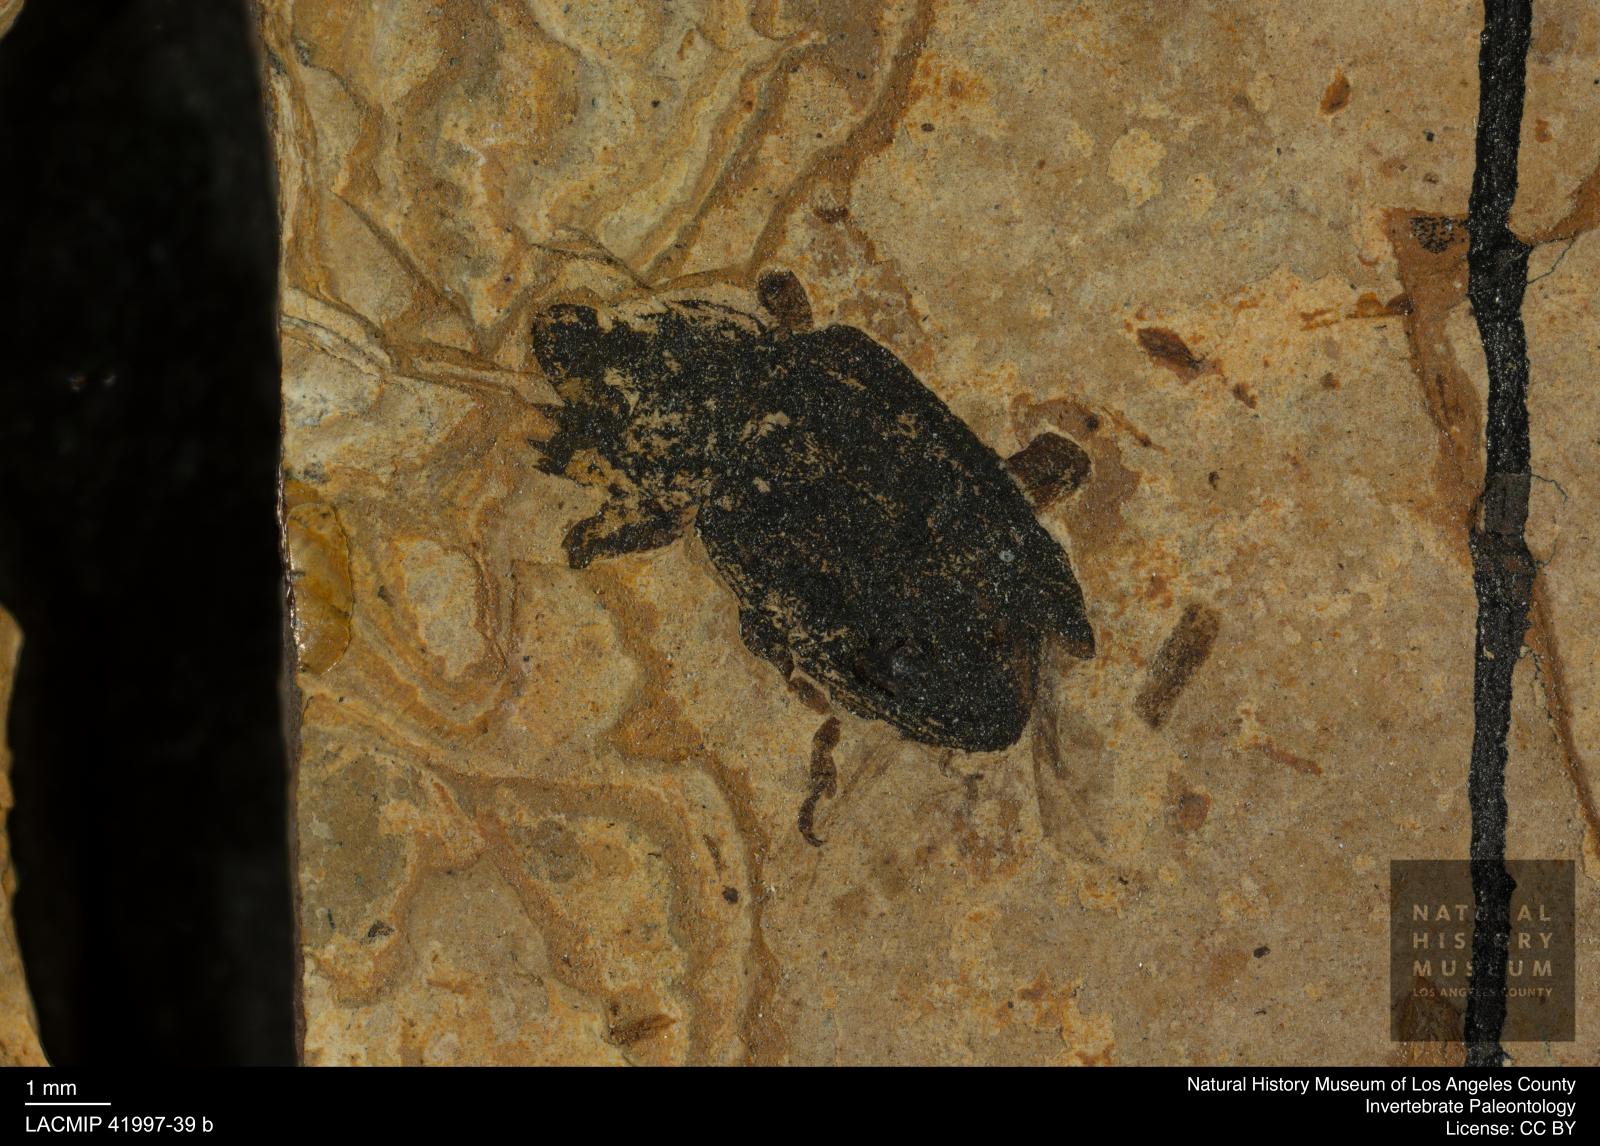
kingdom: Animalia
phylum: Arthropoda
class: Insecta
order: Coleoptera
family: Curculionidae
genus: Larinus
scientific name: Larinus bronni
